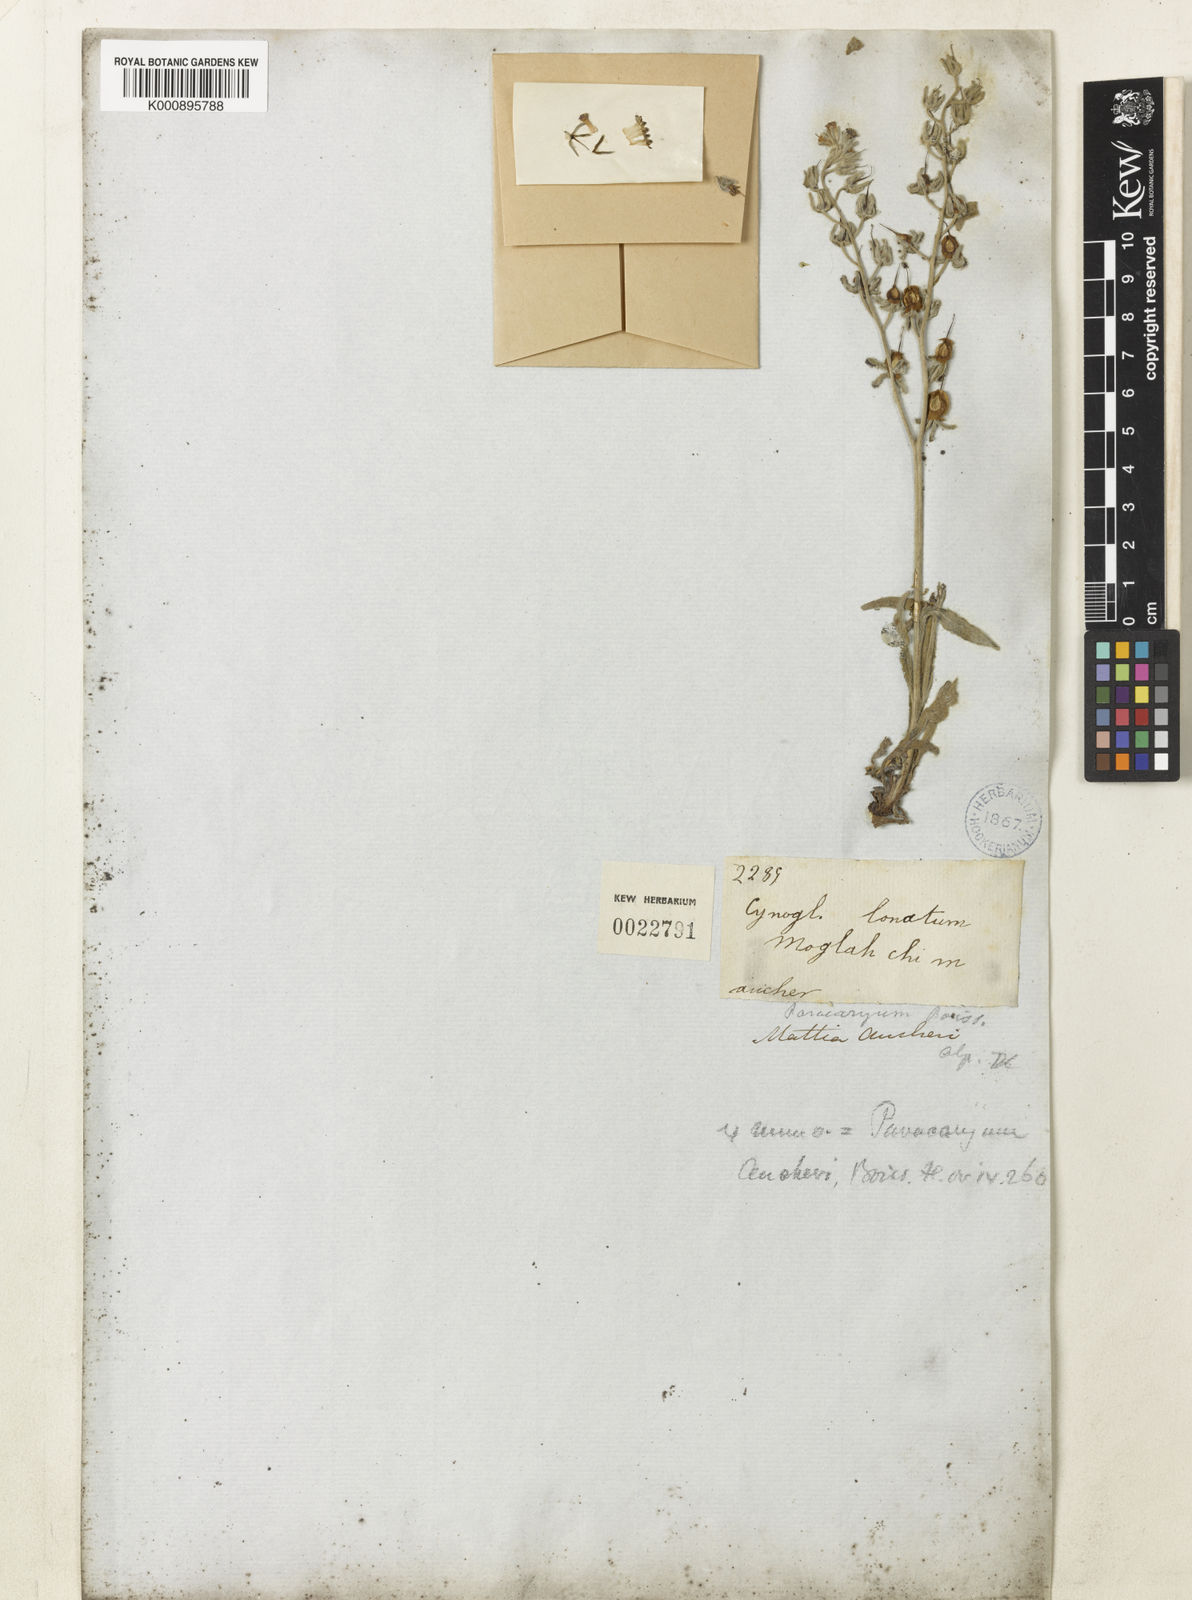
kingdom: Plantae
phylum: Tracheophyta
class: Magnoliopsida
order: Boraginales
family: Boraginaceae
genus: Paracaryum
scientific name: Paracaryum aucheri
